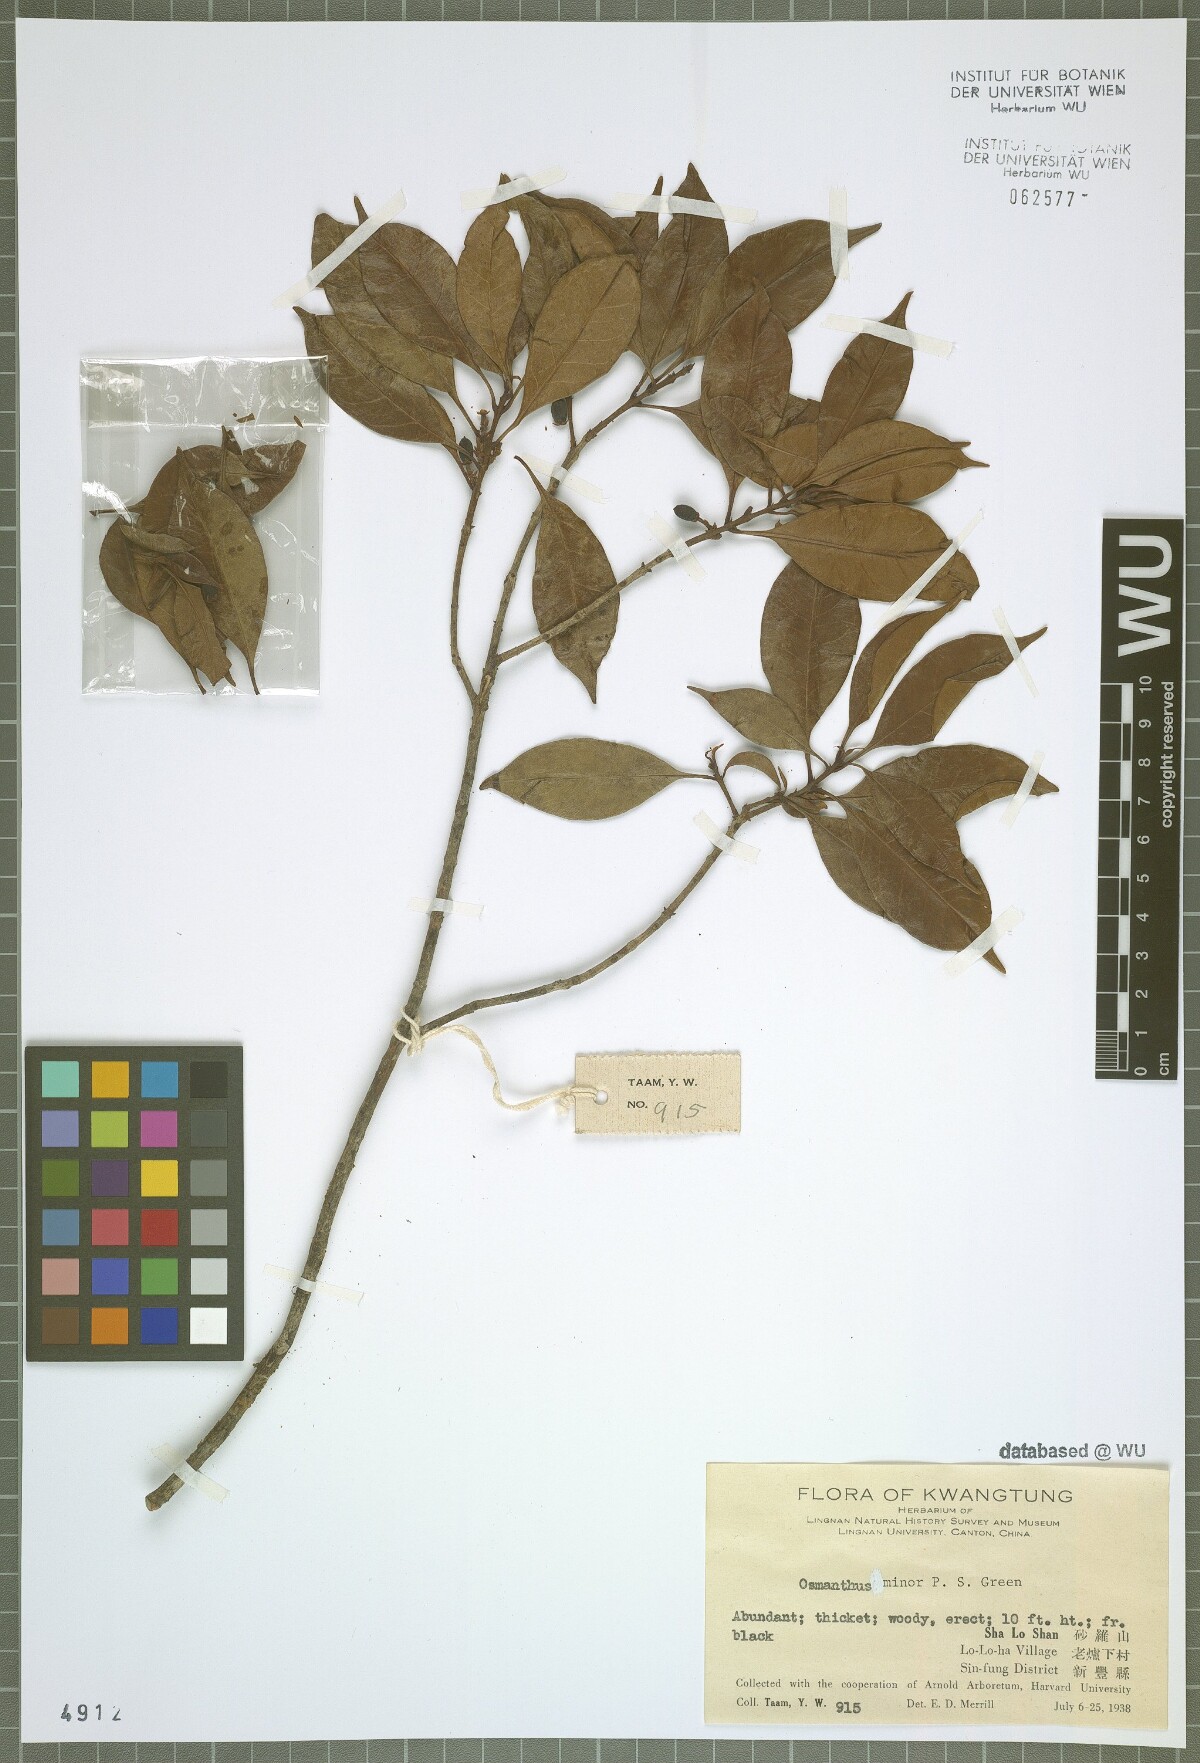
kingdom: Plantae
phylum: Tracheophyta
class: Magnoliopsida
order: Lamiales
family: Oleaceae
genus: Chengiodendron
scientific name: Chengiodendron minor
